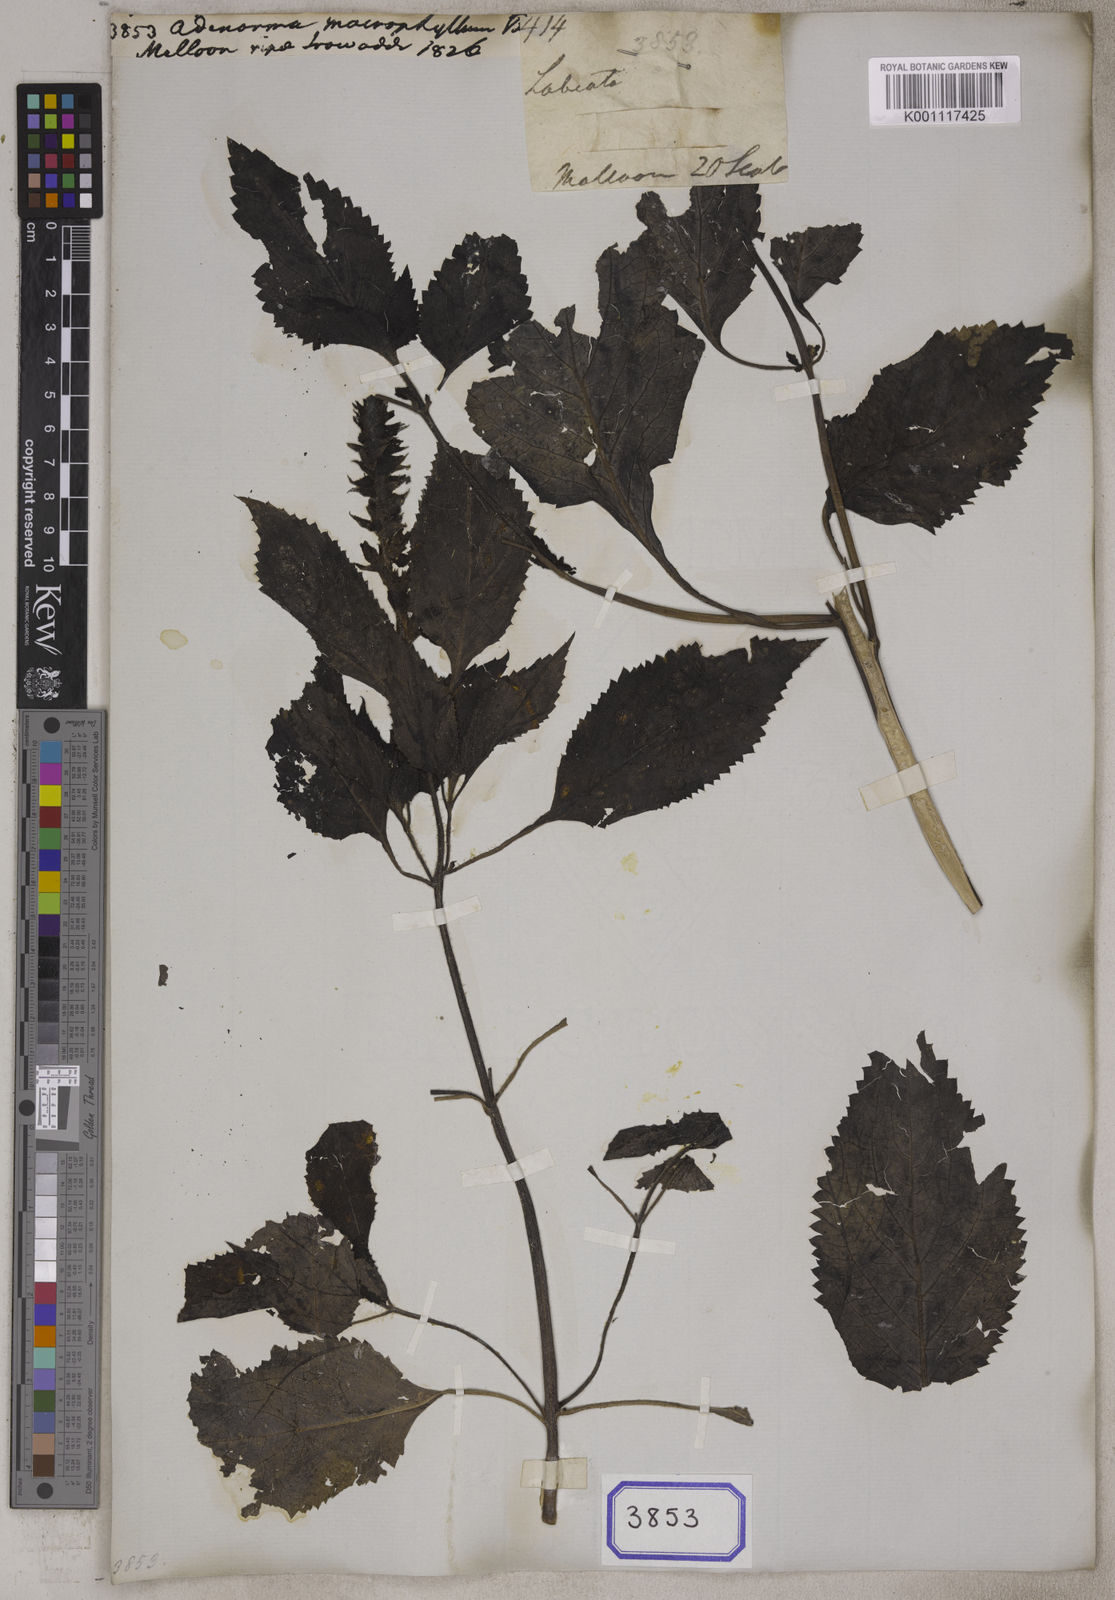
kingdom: Plantae
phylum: Tracheophyta
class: Magnoliopsida
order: Lamiales
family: Plantaginaceae
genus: Adenosma
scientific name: Adenosma macrophylla
